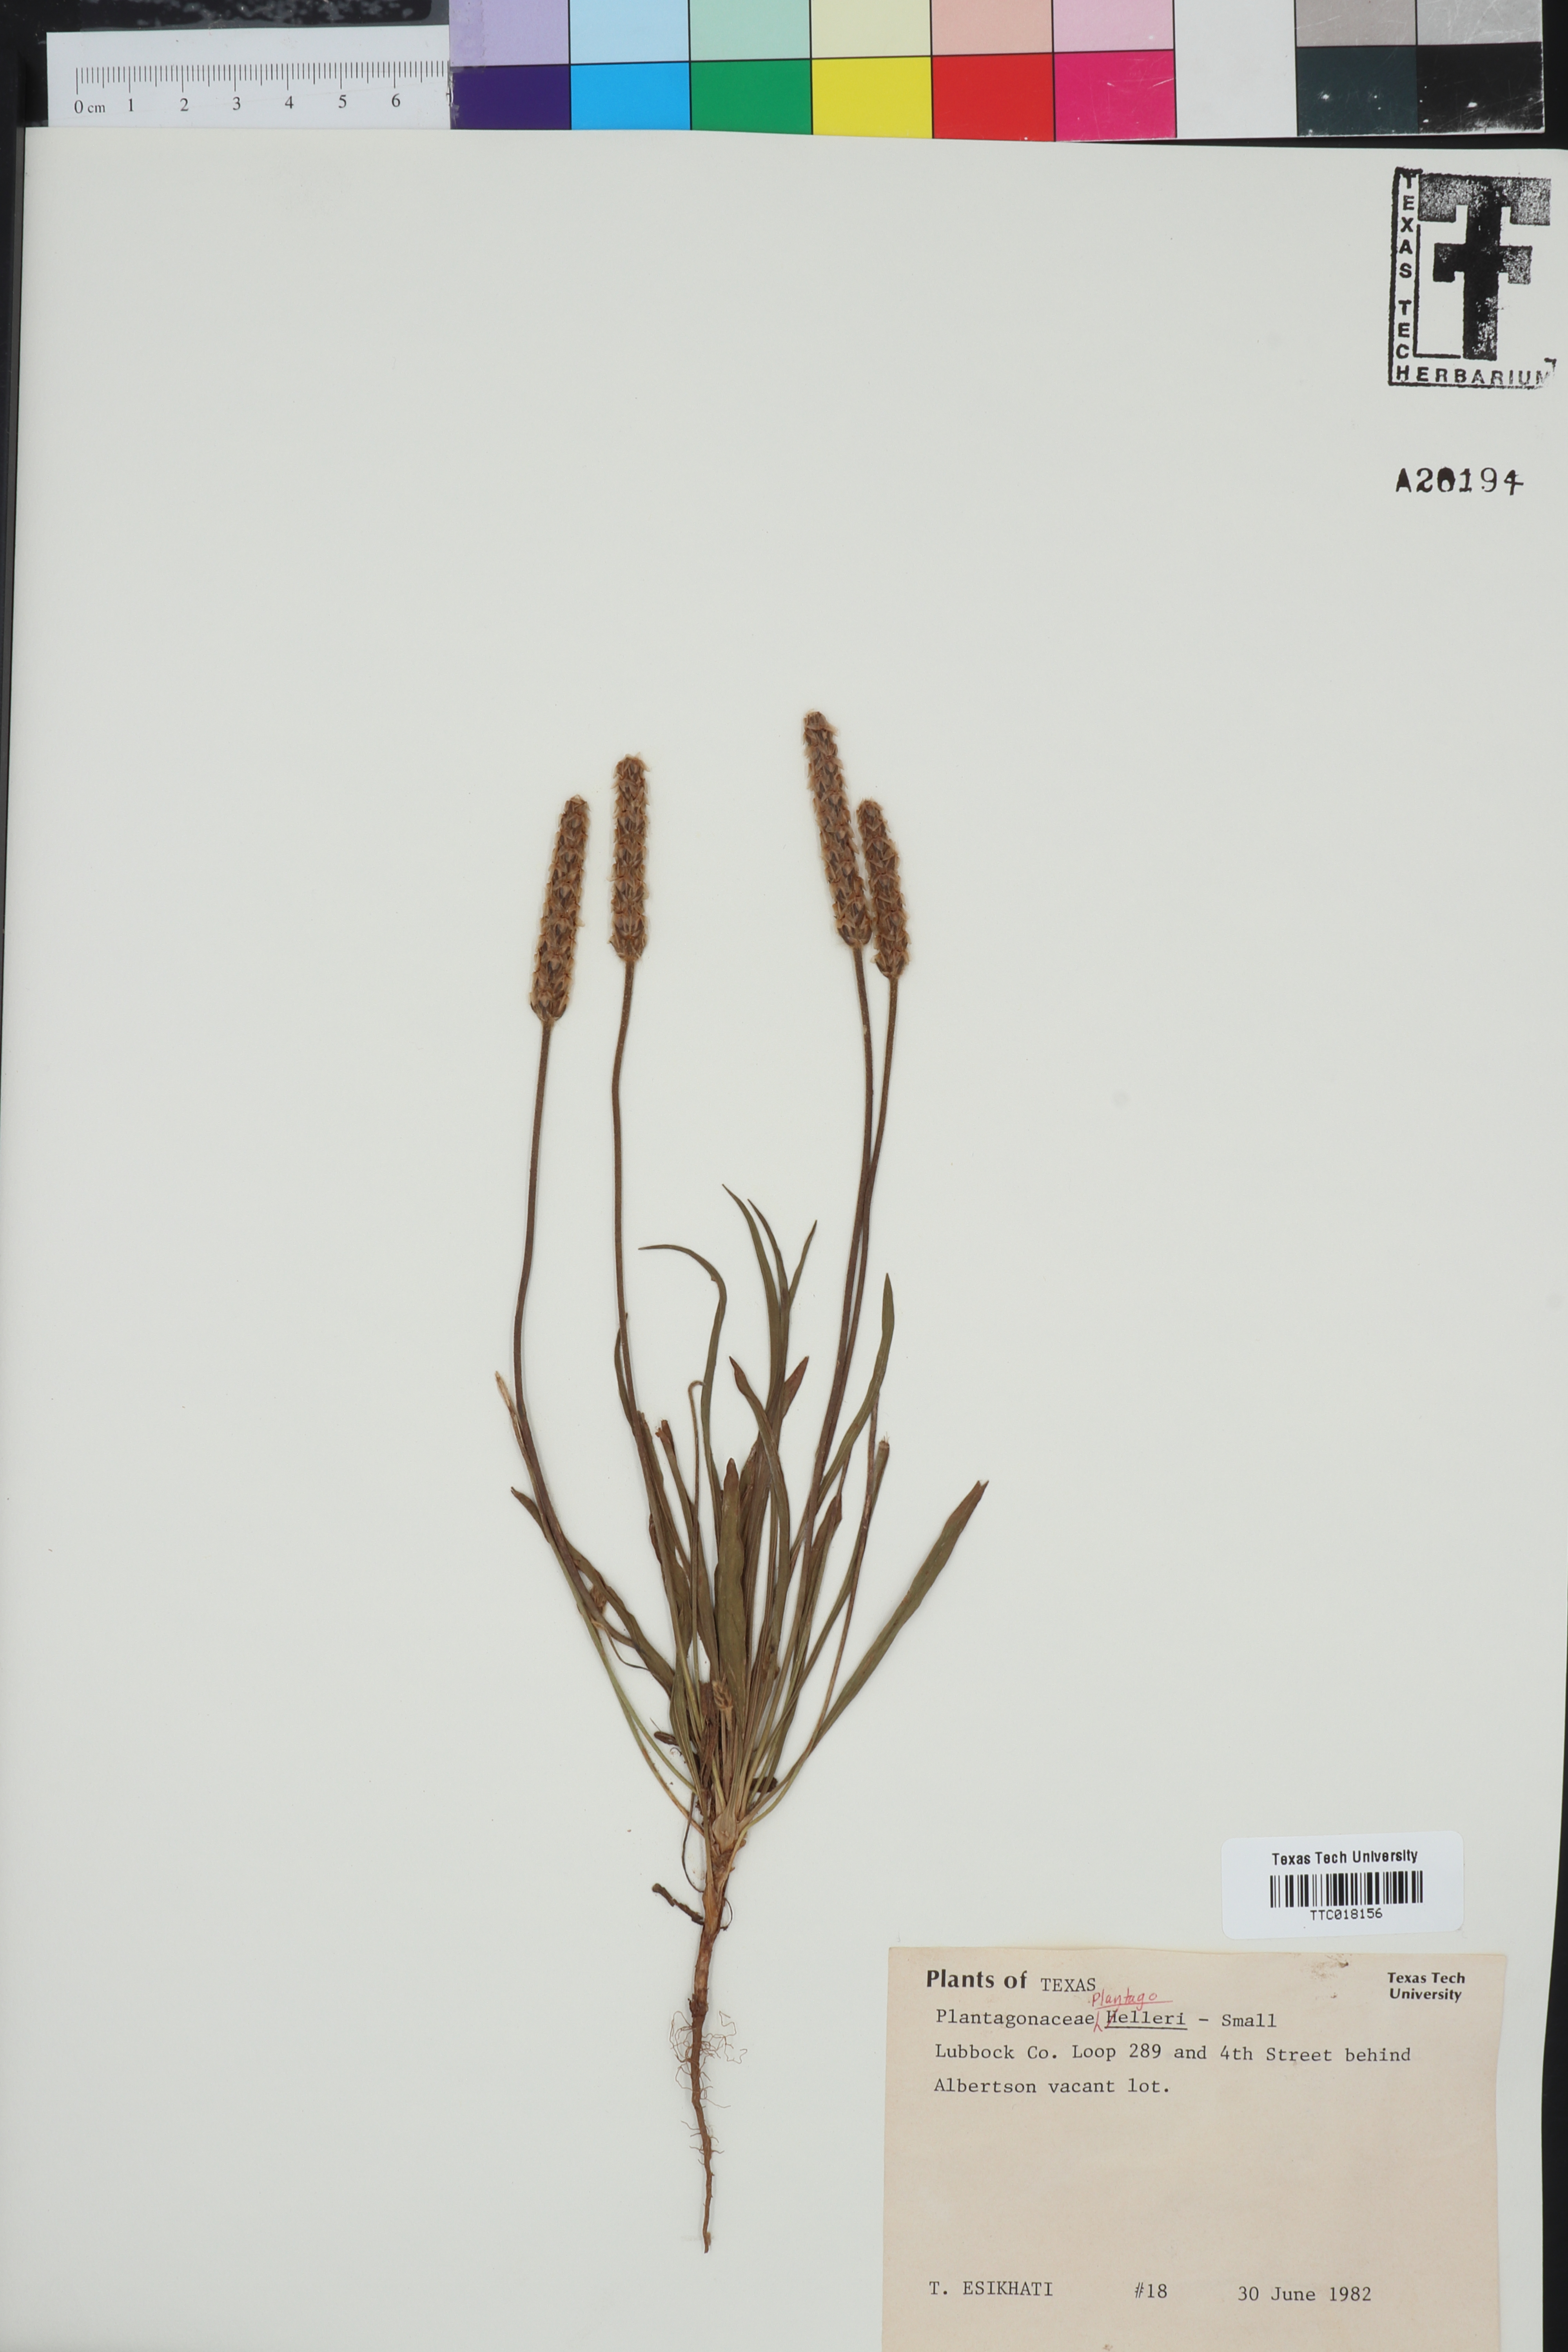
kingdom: Plantae
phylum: Tracheophyta
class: Magnoliopsida
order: Lamiales
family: Plantaginaceae
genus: Plantago
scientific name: Plantago helleri
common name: Heller's plantain
